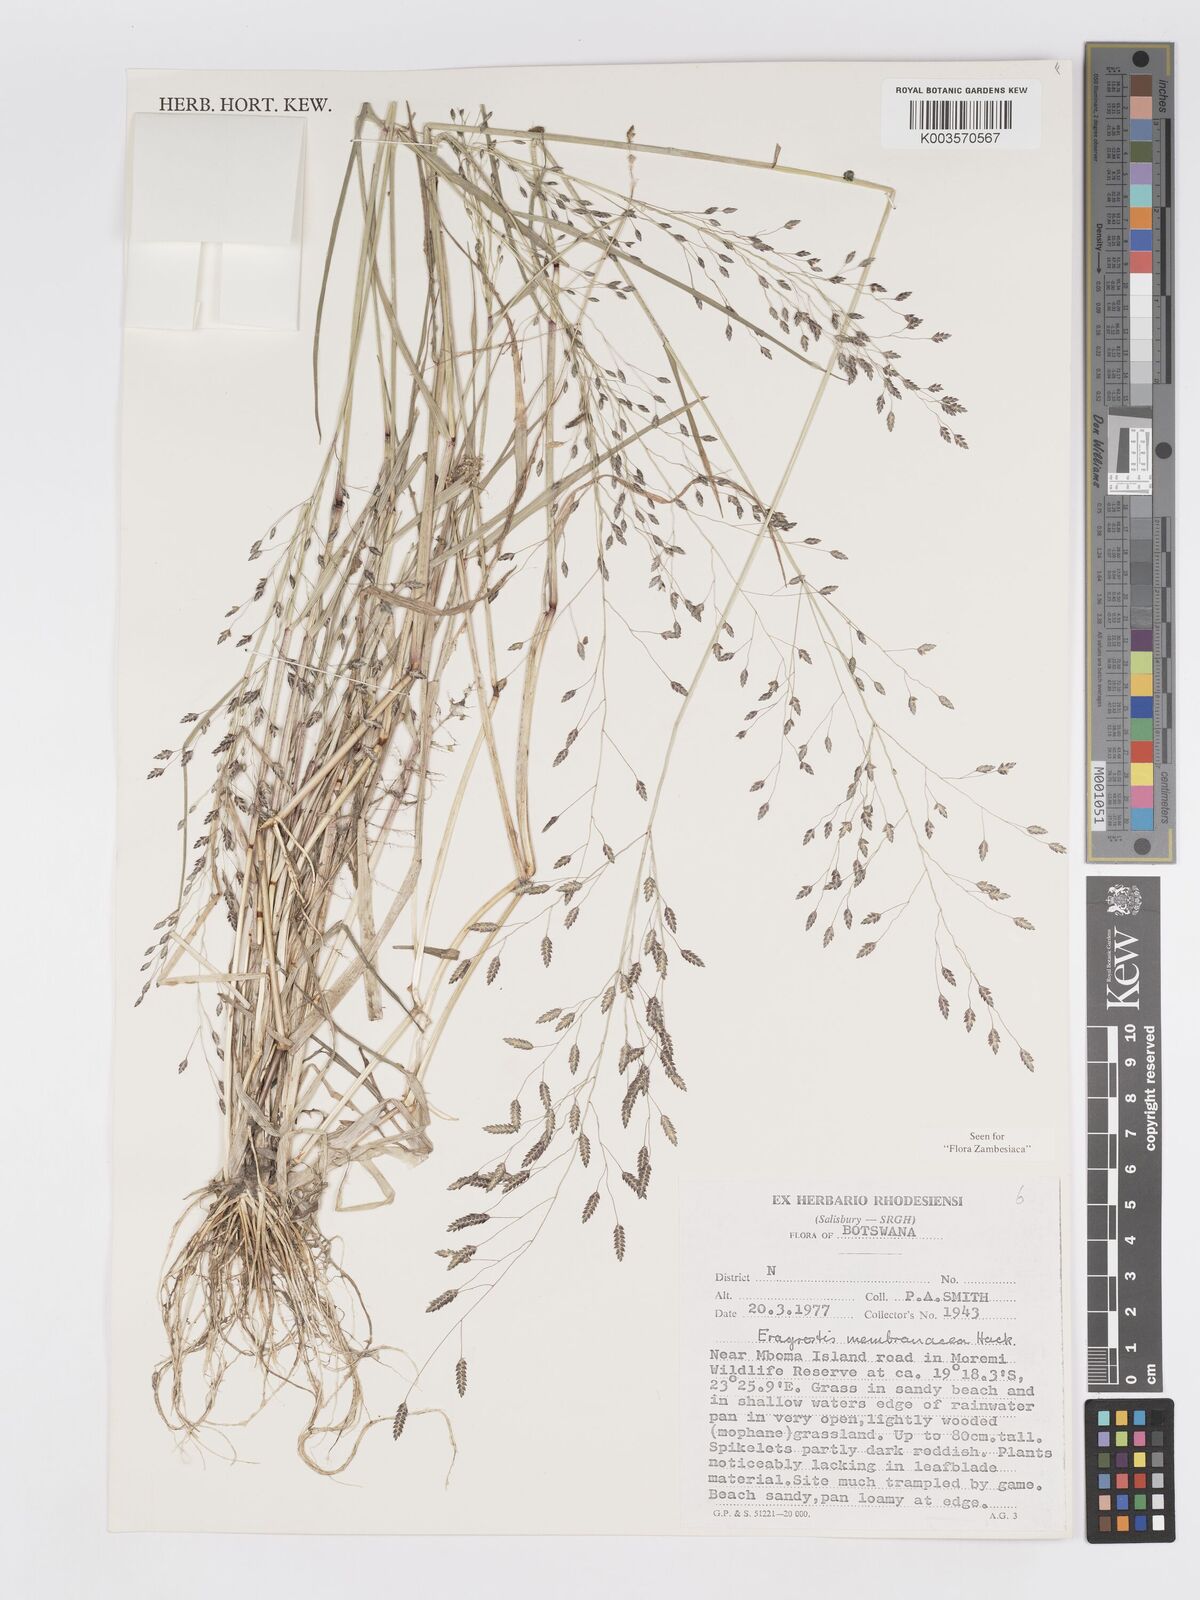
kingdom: Plantae
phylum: Tracheophyta
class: Liliopsida
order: Poales
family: Poaceae
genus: Eragrostis
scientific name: Eragrostis membranacea
